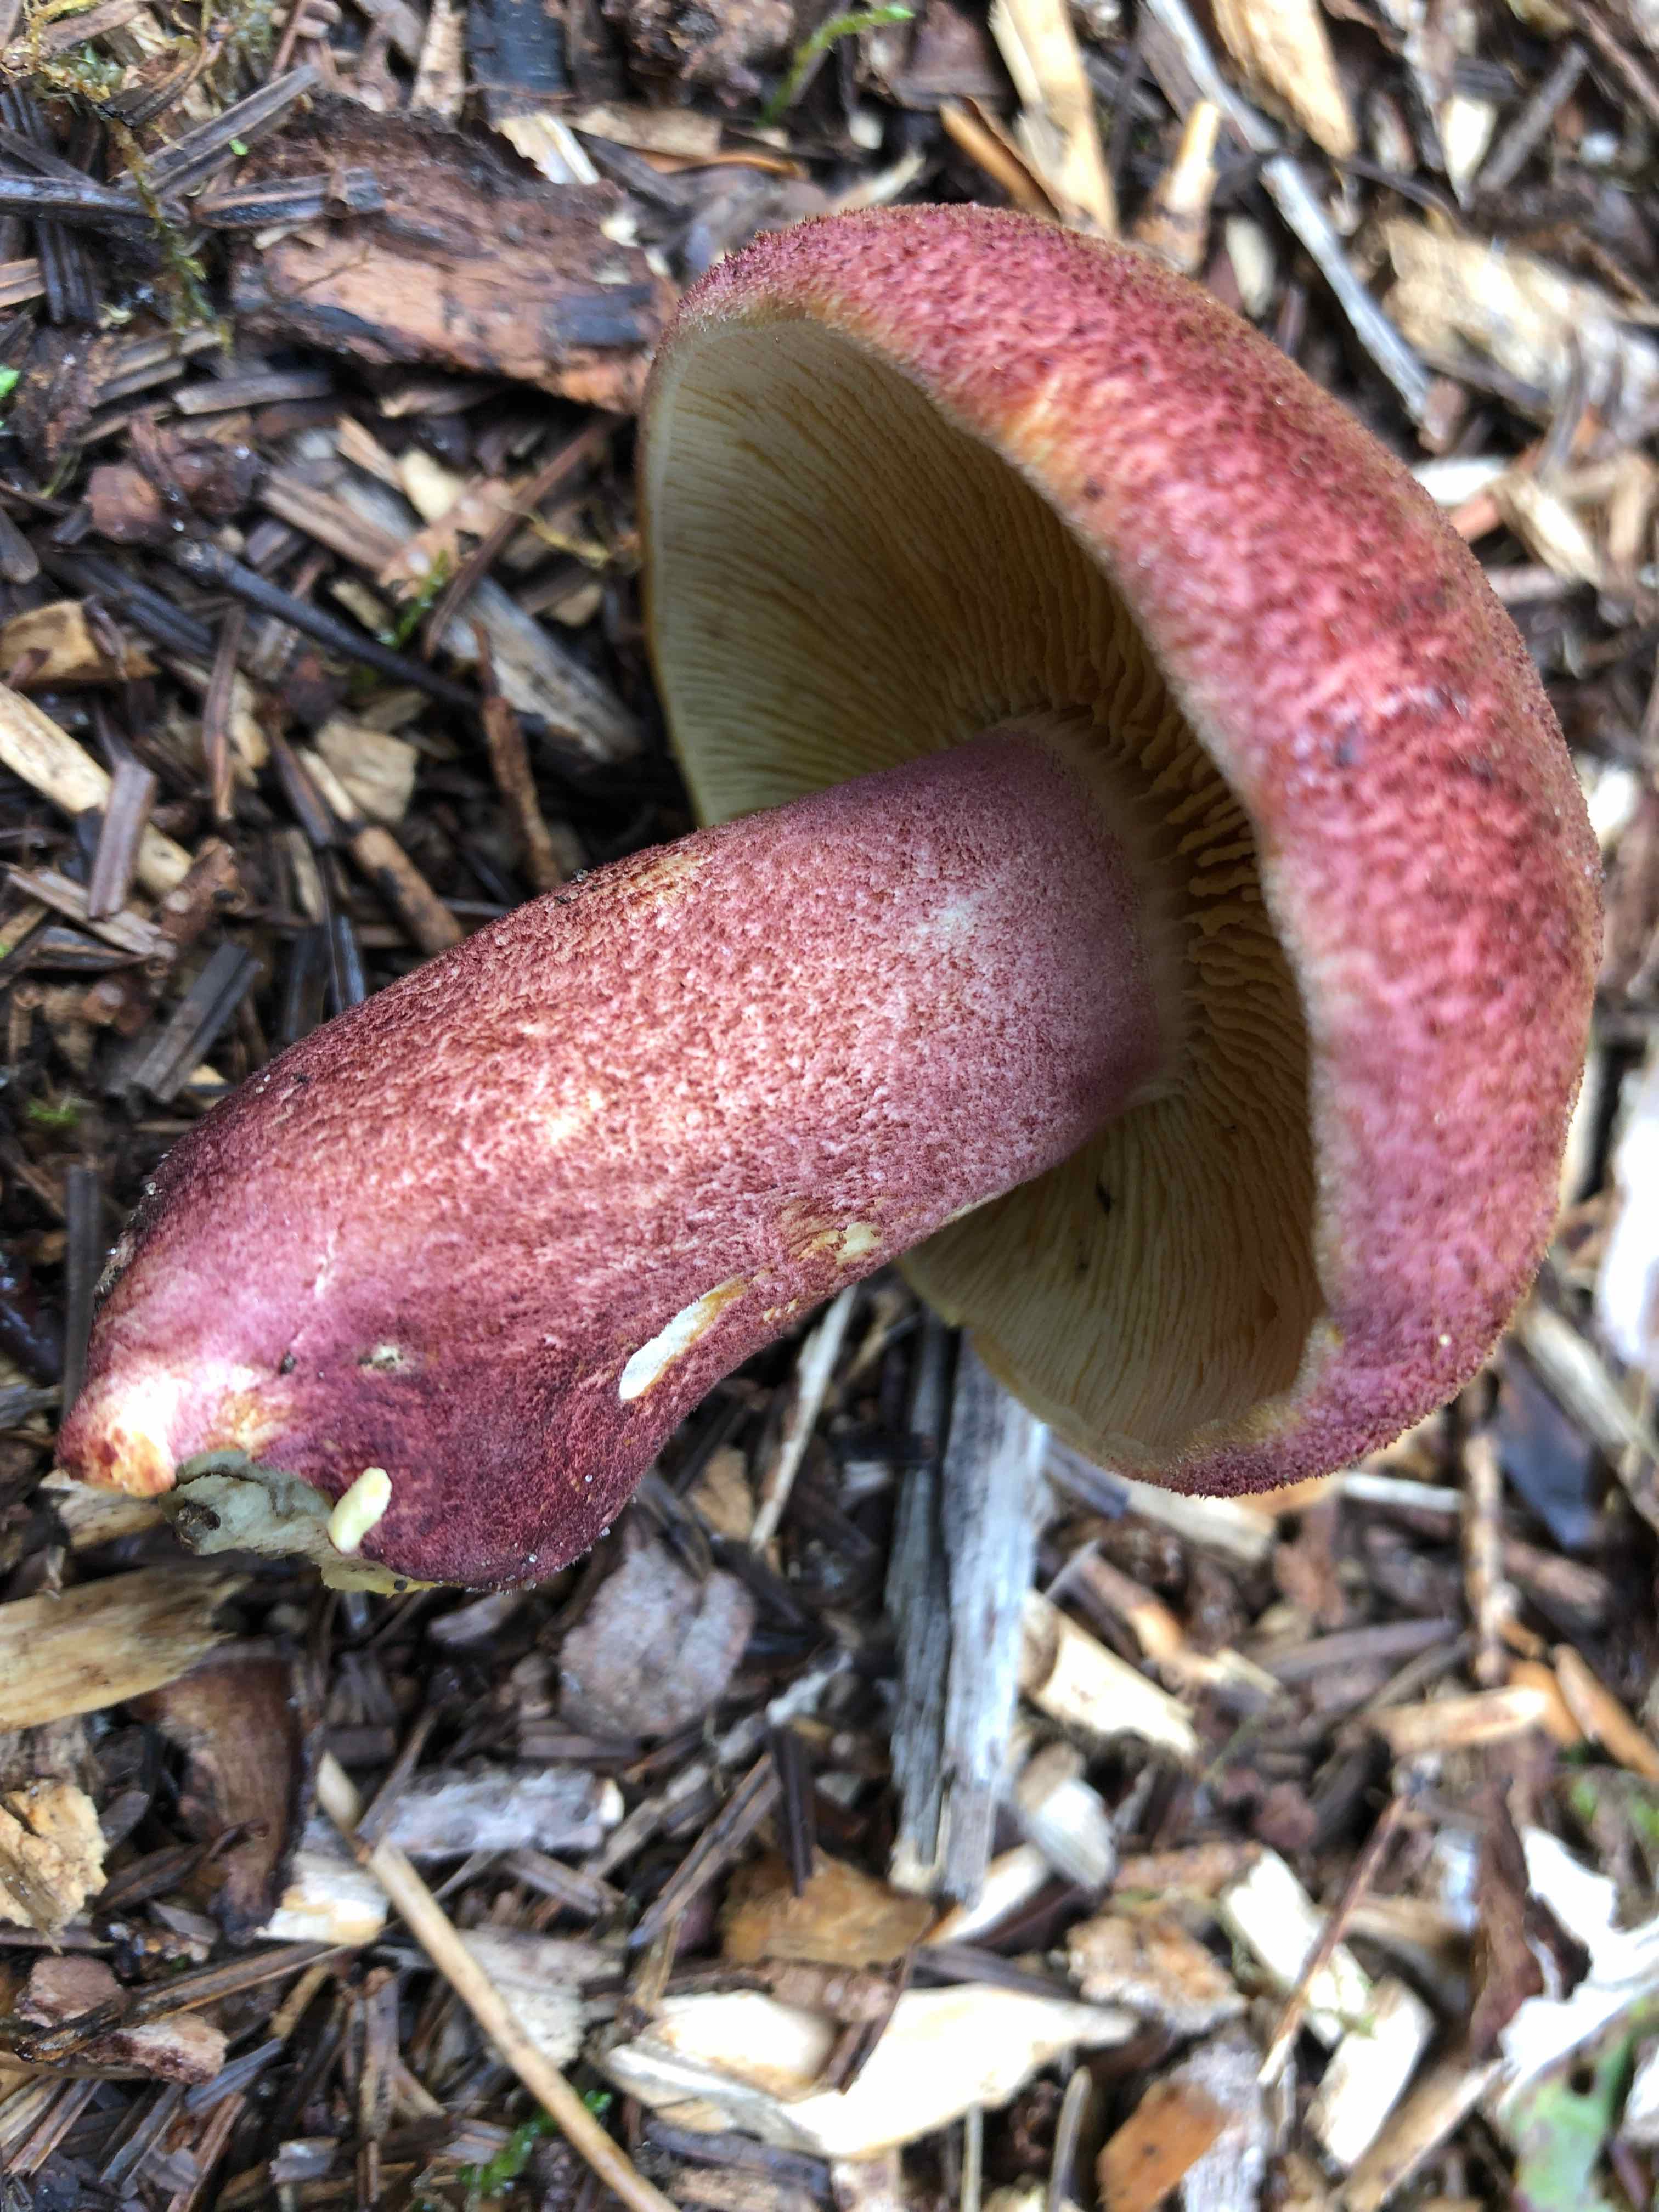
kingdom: Fungi
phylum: Basidiomycota
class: Agaricomycetes
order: Agaricales
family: Tricholomataceae
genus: Tricholomopsis
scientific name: Tricholomopsis rutilans
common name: purpur-væbnerhat
